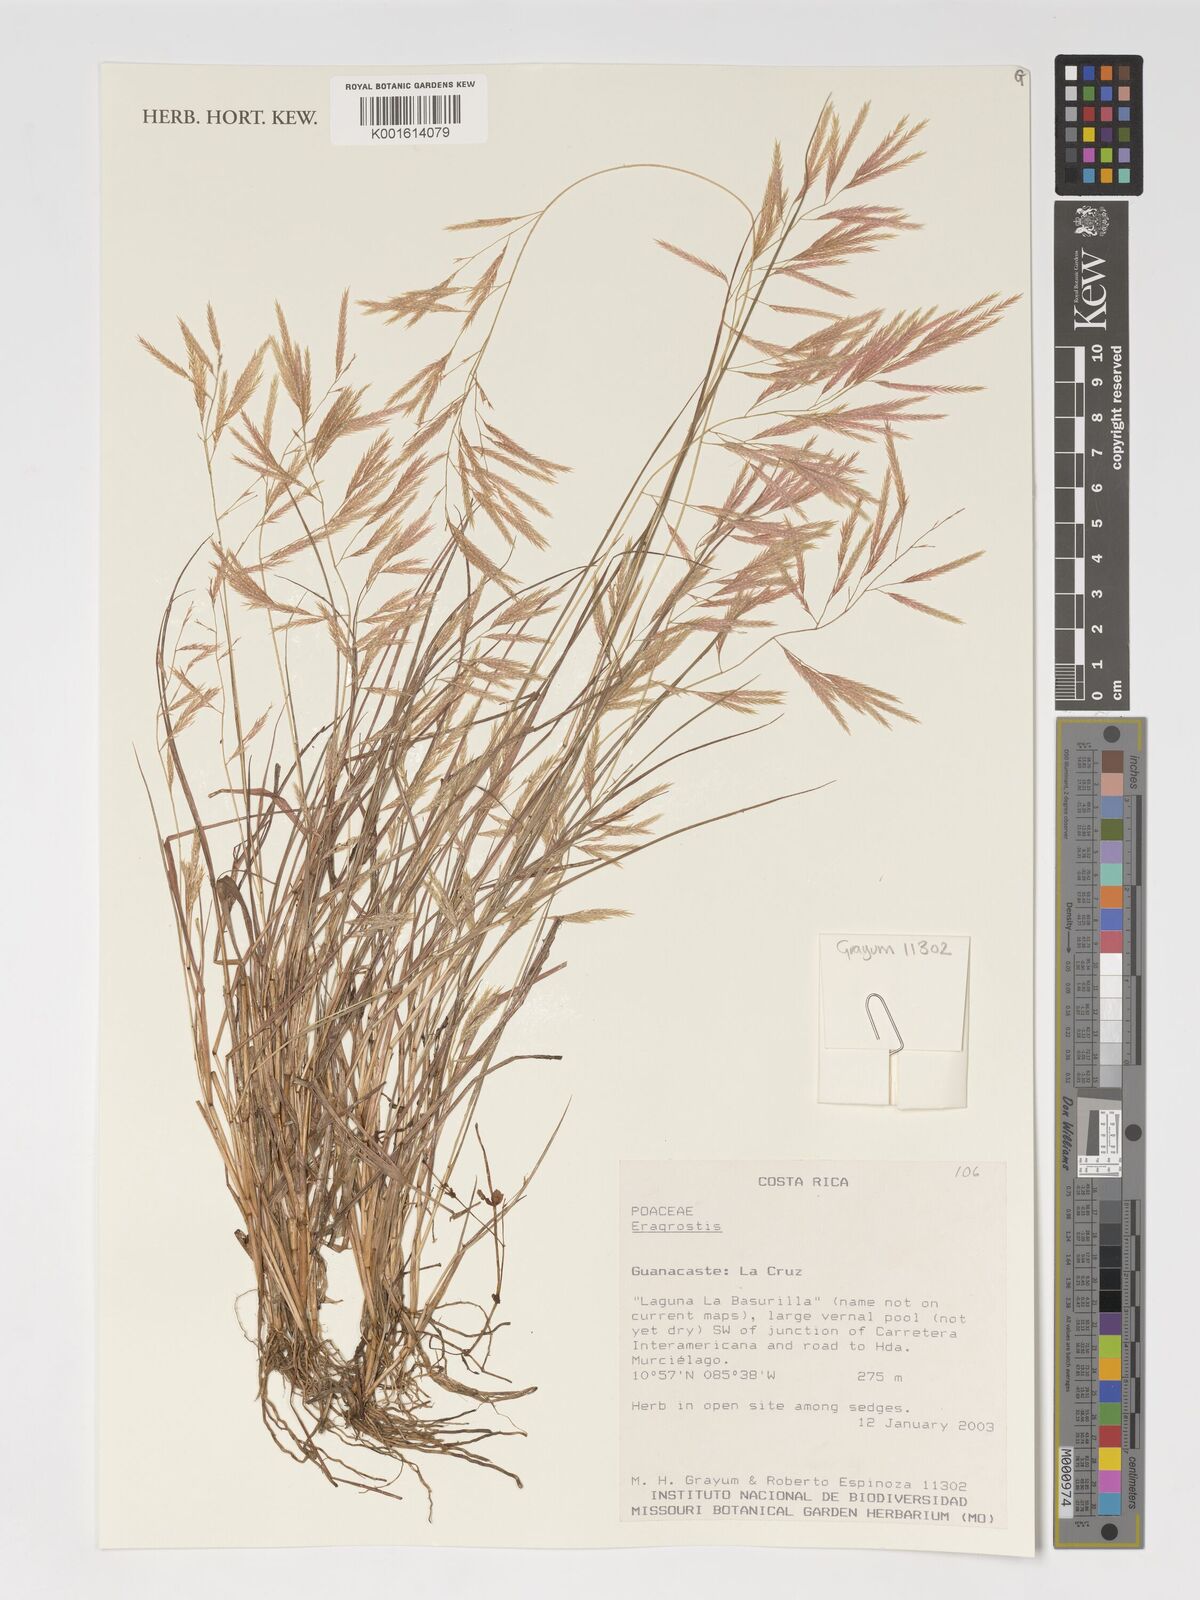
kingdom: Plantae
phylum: Tracheophyta
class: Liliopsida
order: Poales
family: Poaceae
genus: Eragrostis
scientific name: Eragrostis
